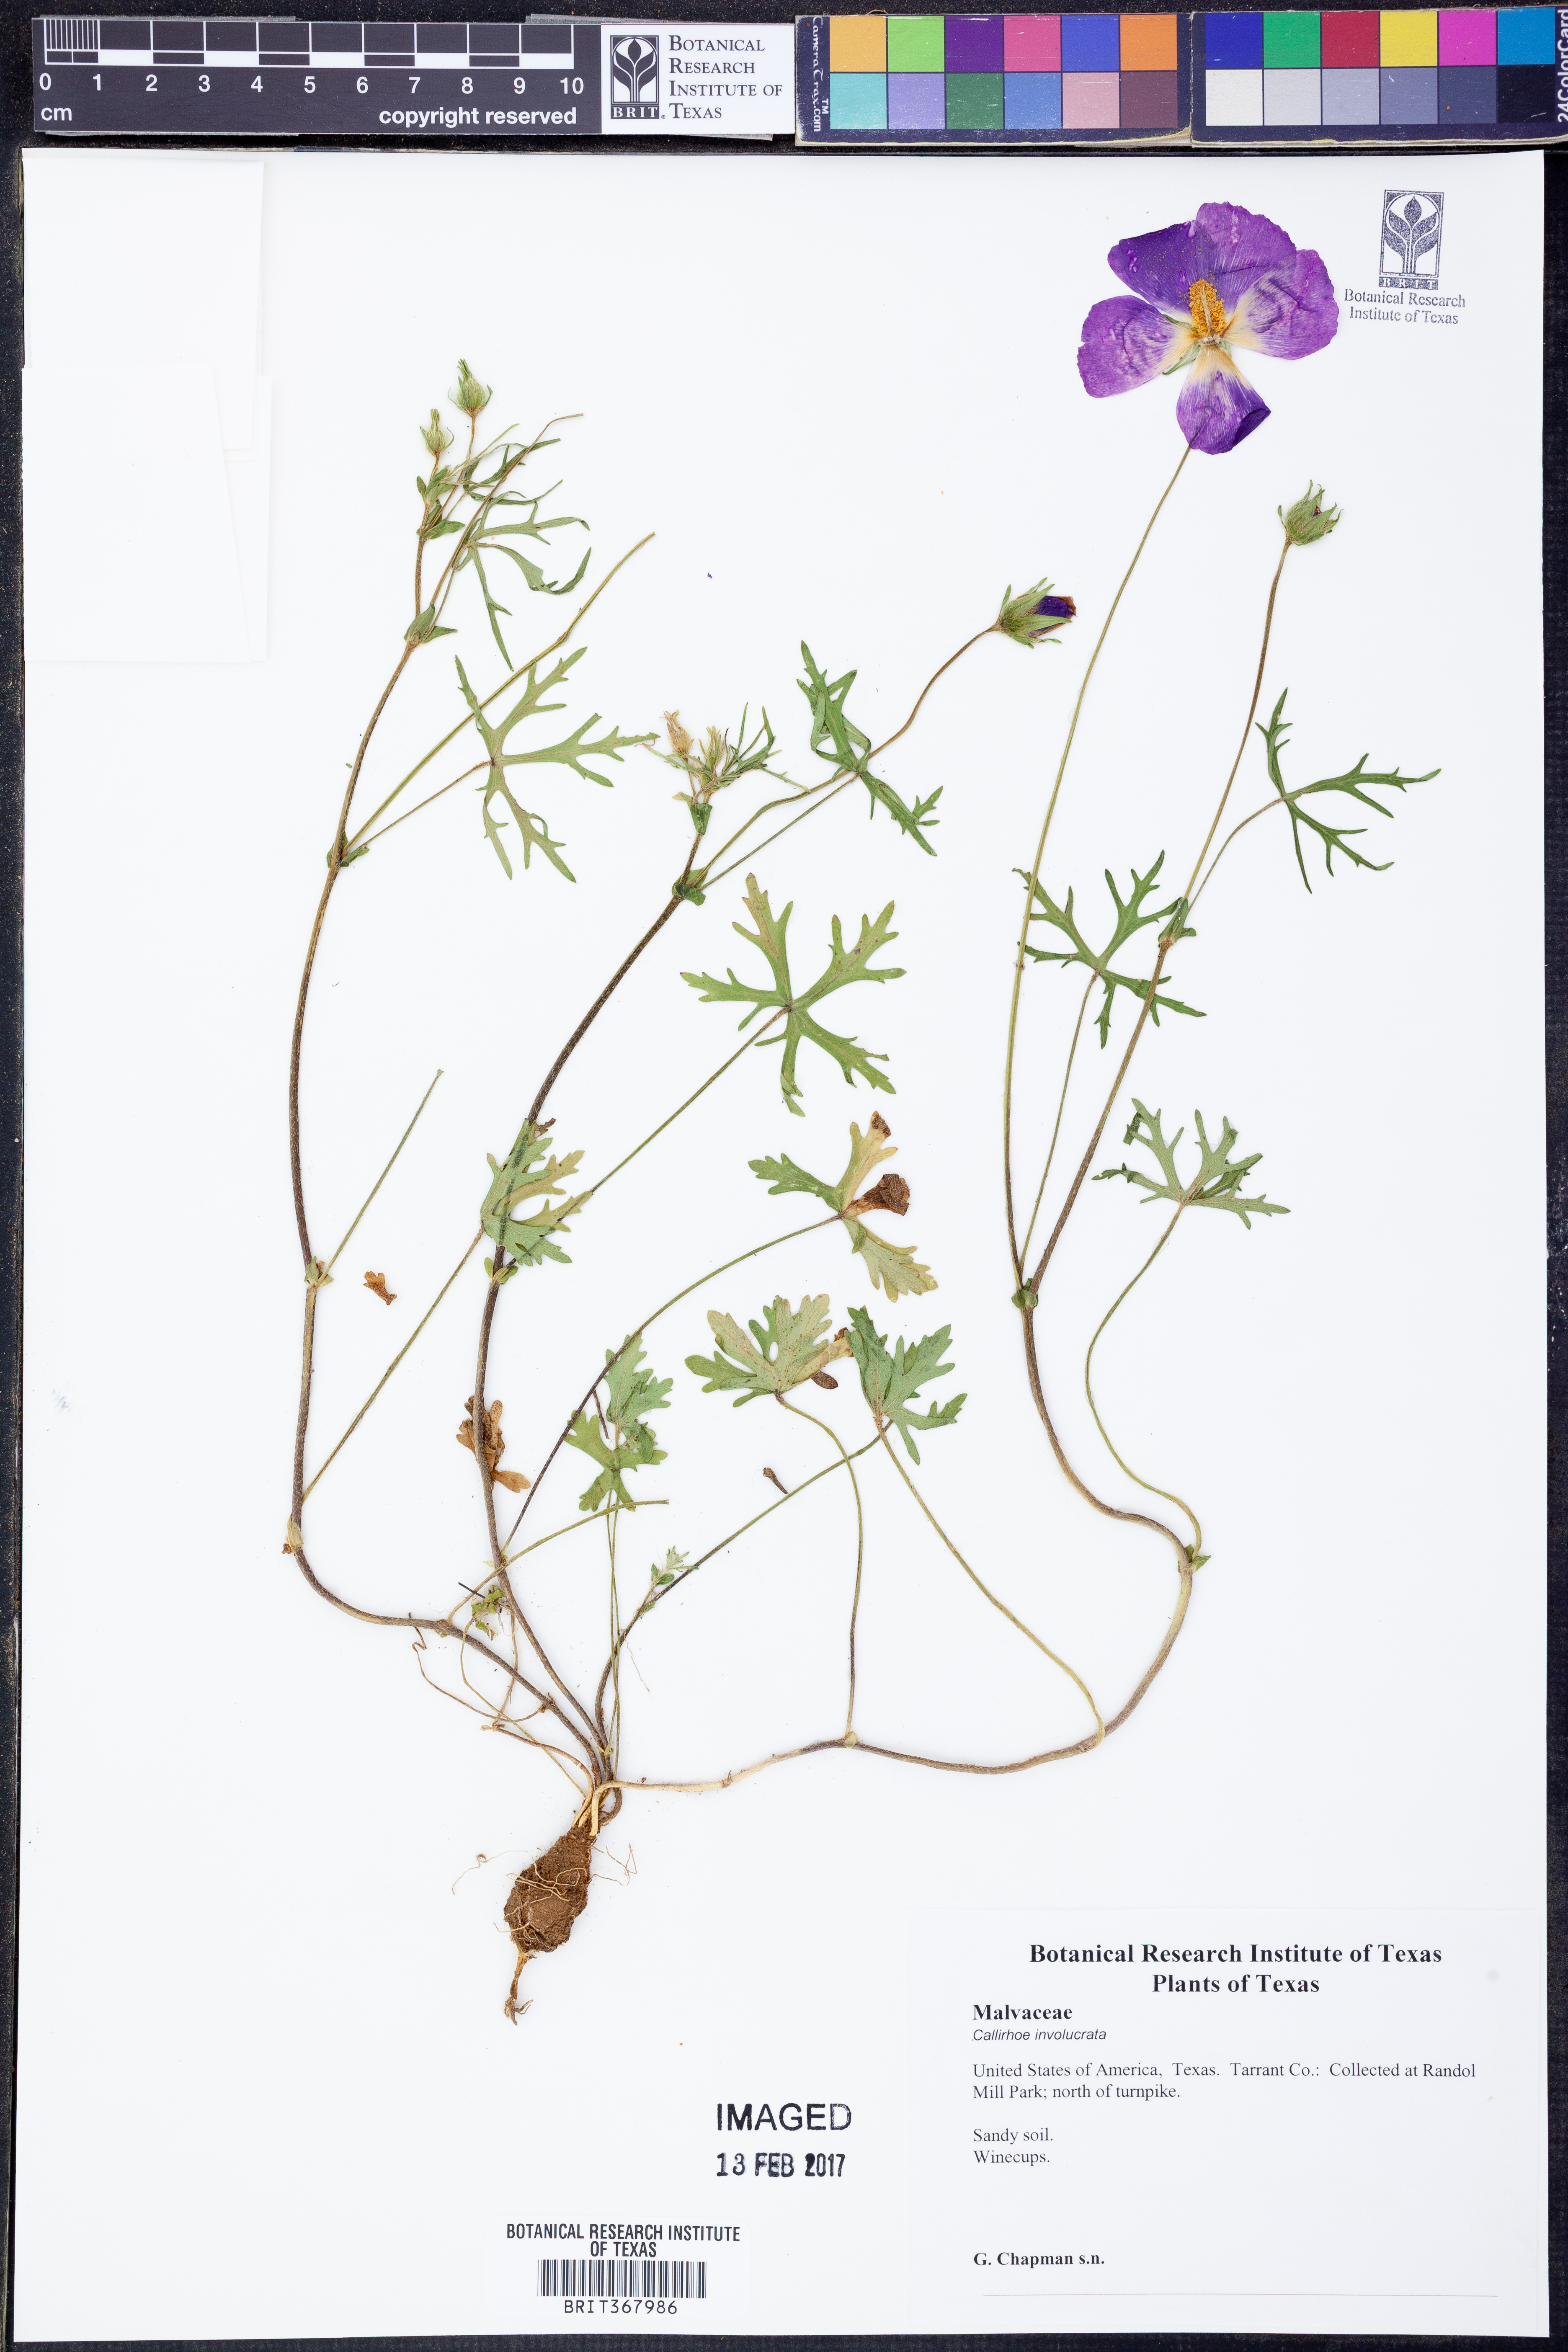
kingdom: Plantae
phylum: Tracheophyta
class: Magnoliopsida
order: Malvales
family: Malvaceae
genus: Callirhoe
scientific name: Callirhoe involucrata
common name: Purple poppy-mallow
